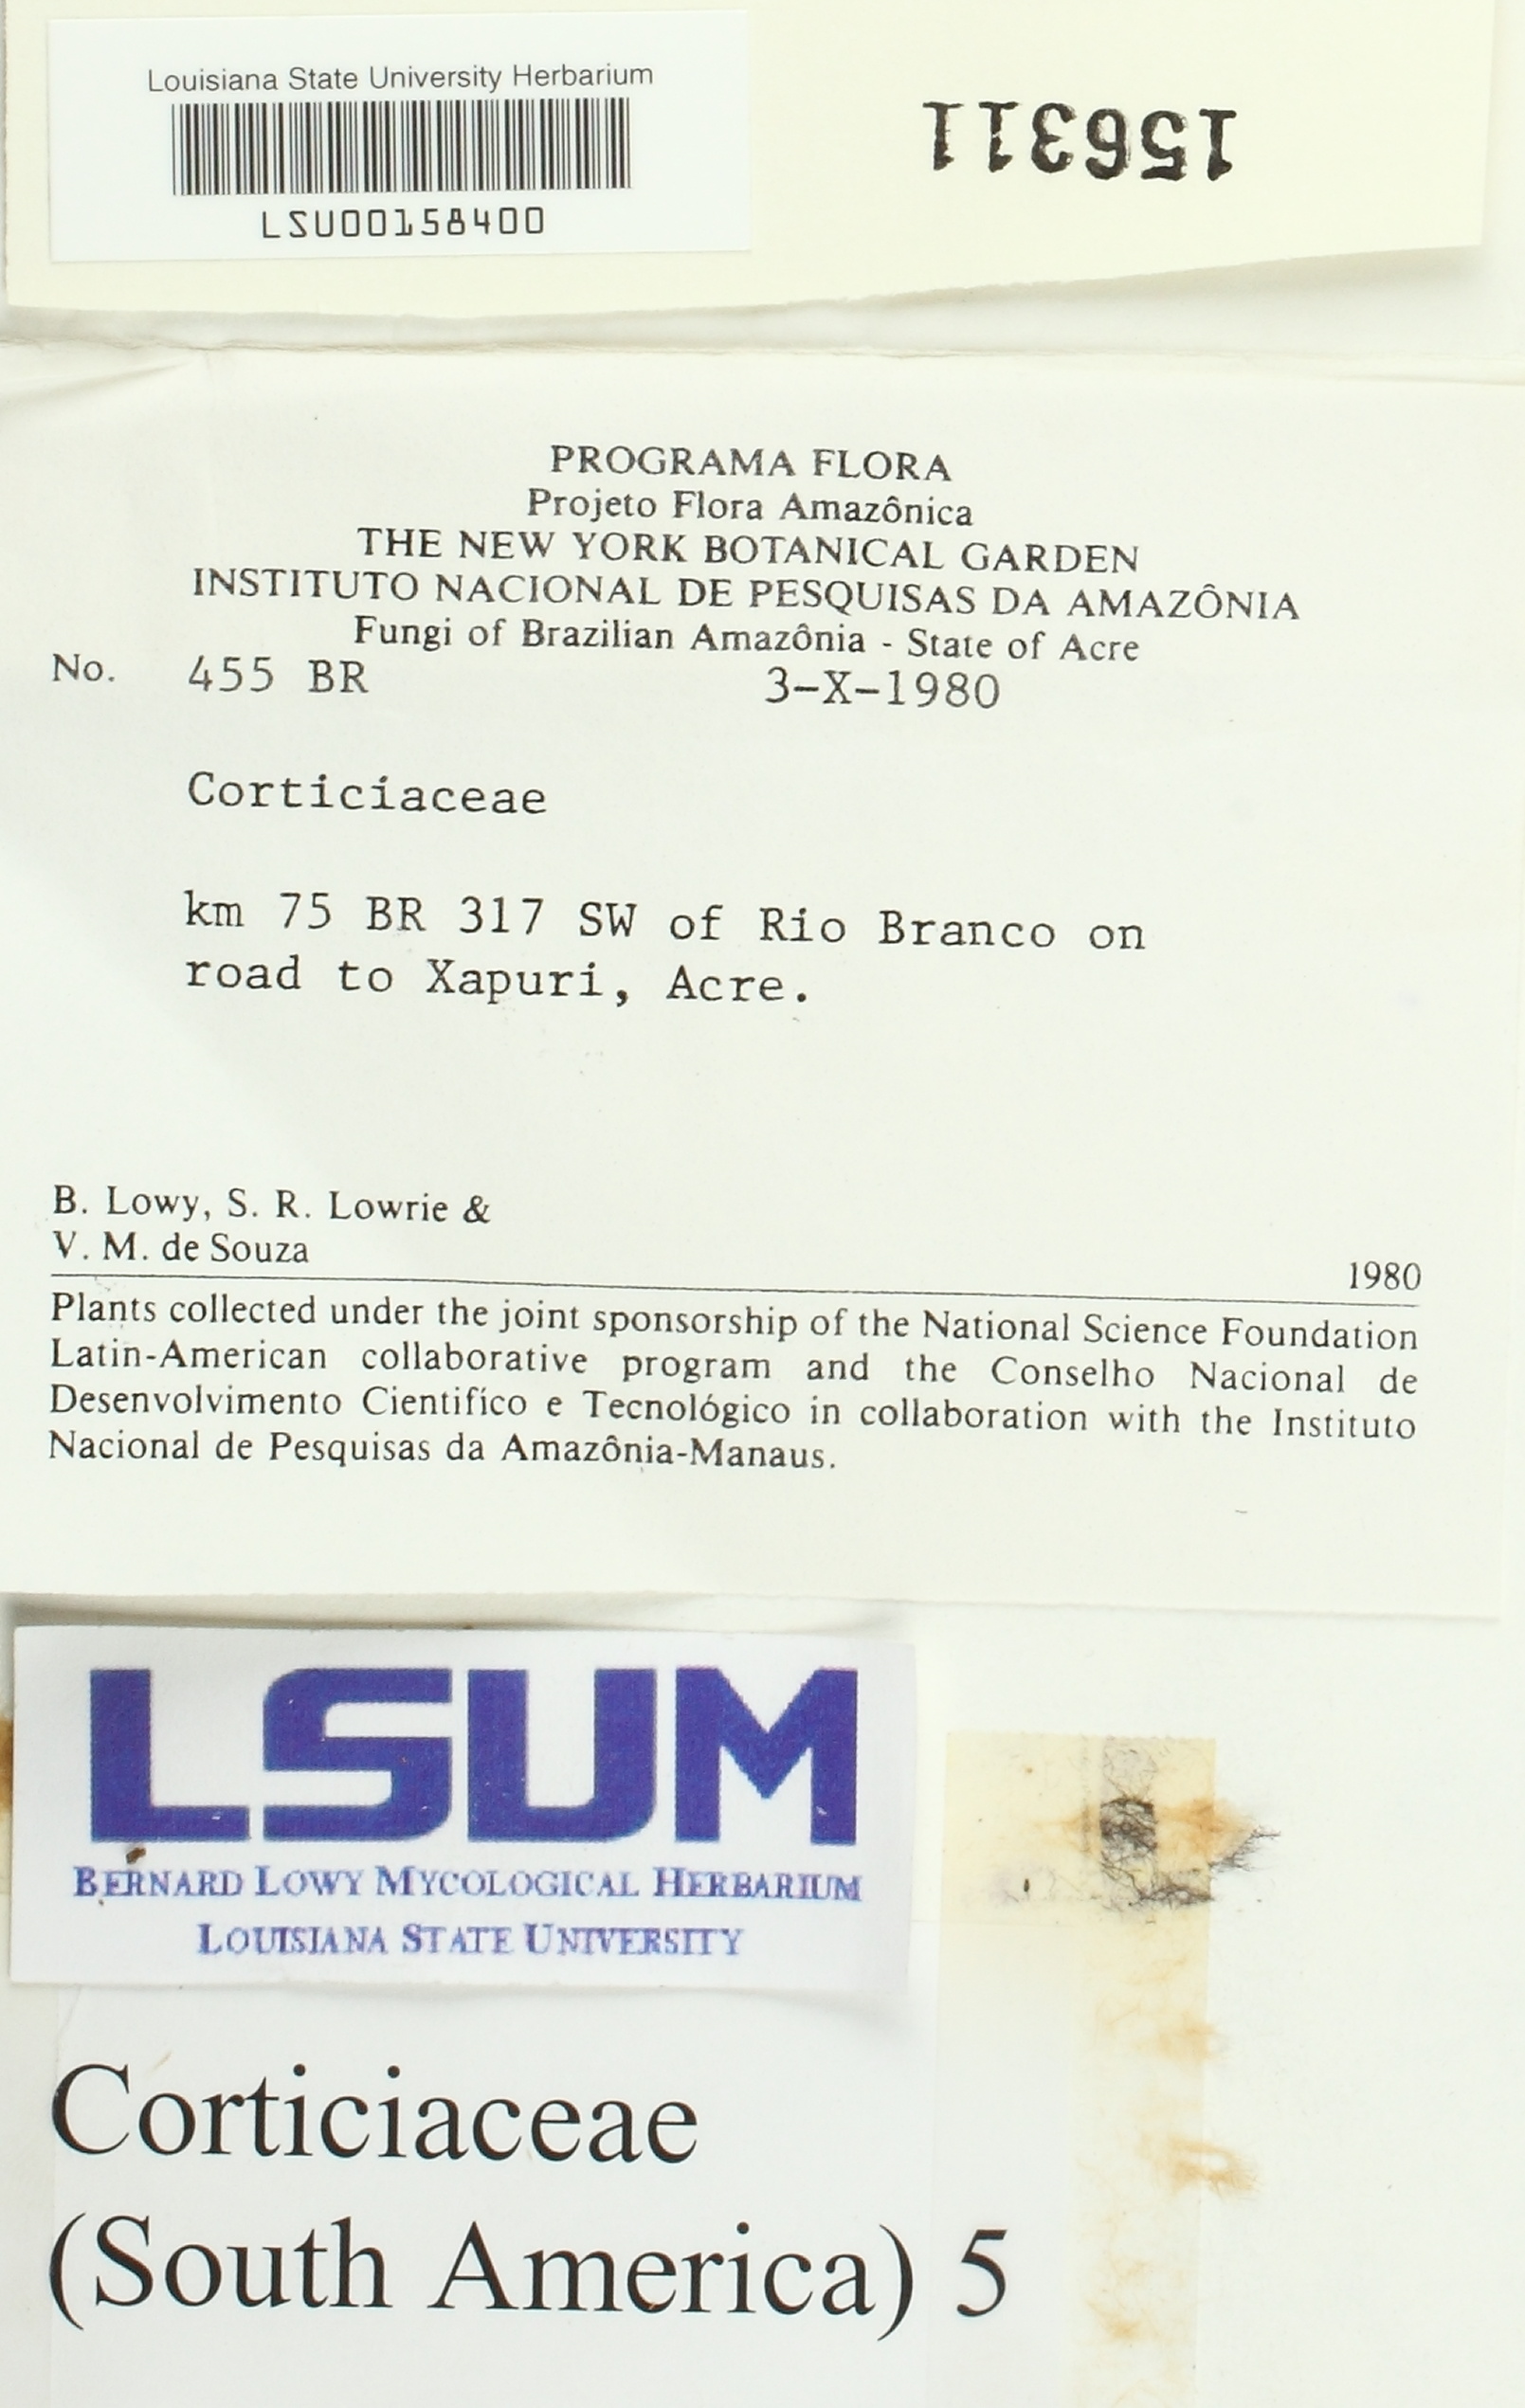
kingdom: Fungi
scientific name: Fungi
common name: Fungi
